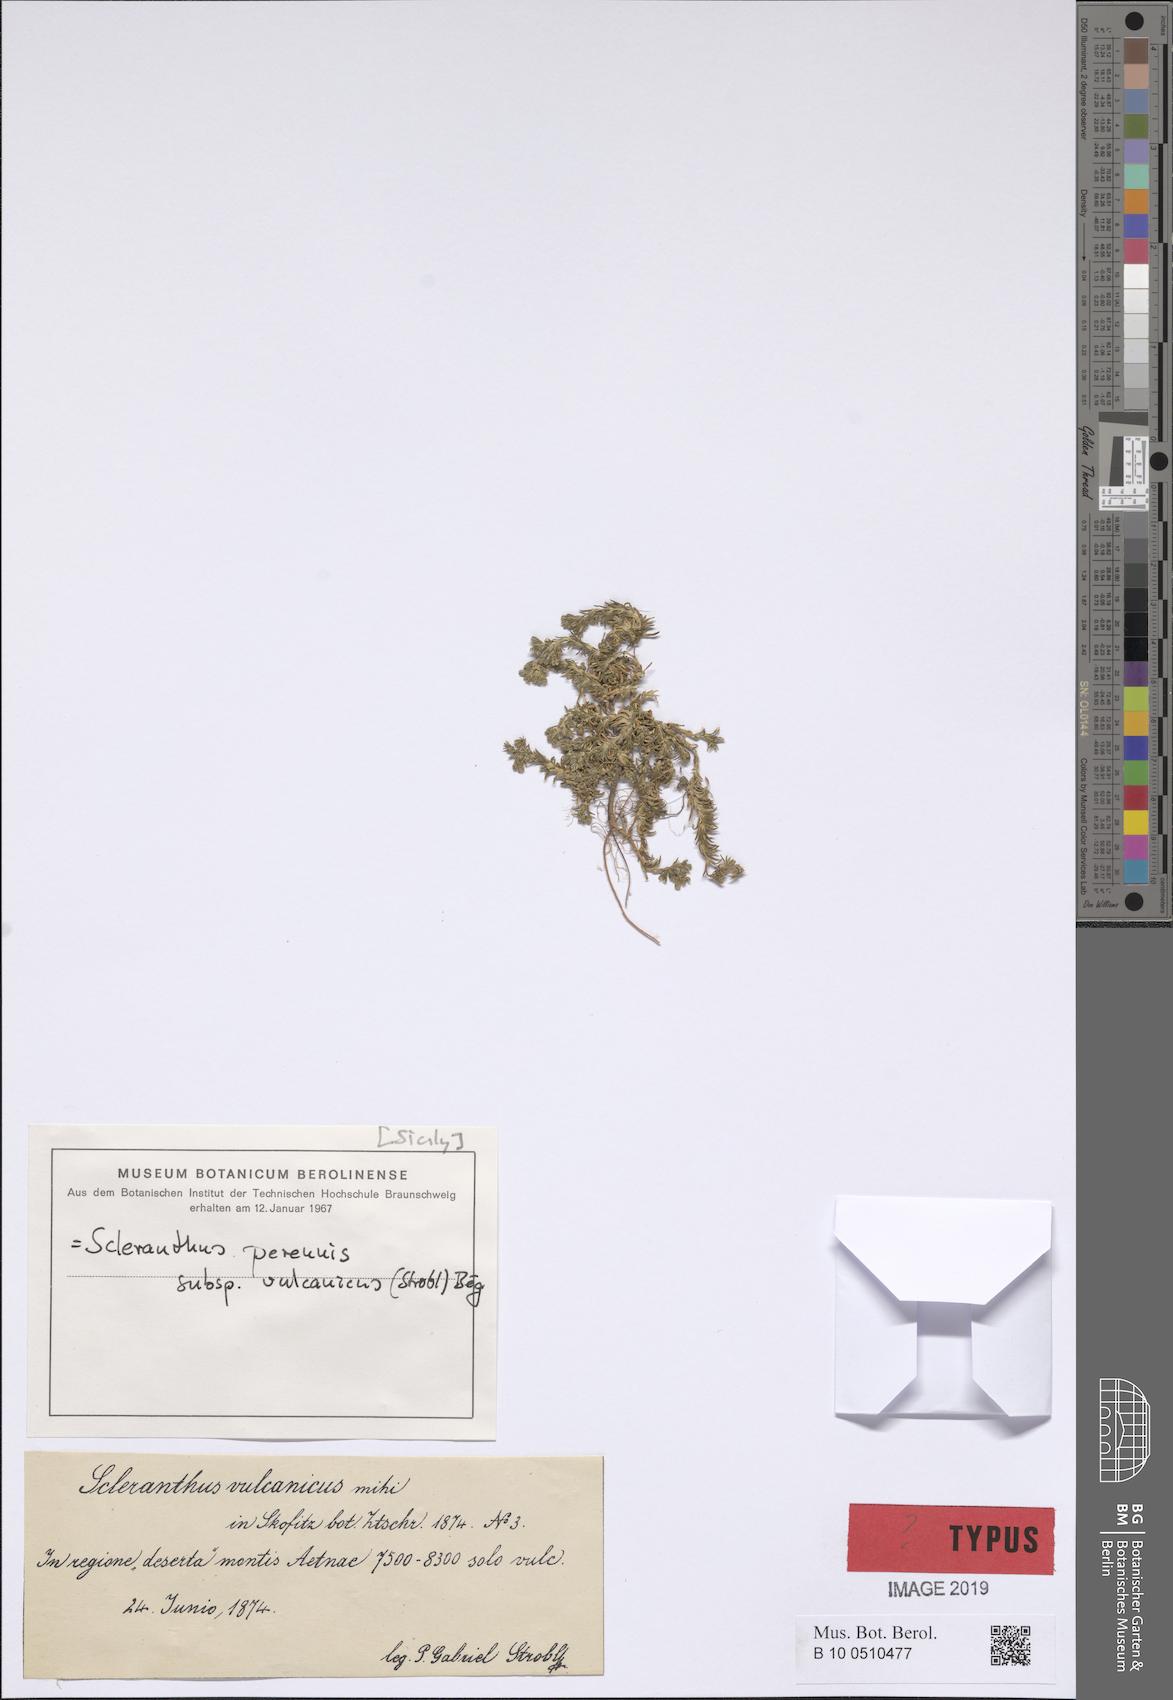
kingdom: Plantae
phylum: Tracheophyta
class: Magnoliopsida
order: Caryophyllales
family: Caryophyllaceae
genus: Scleranthus
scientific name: Scleranthus perennis
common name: Perennial knawel
